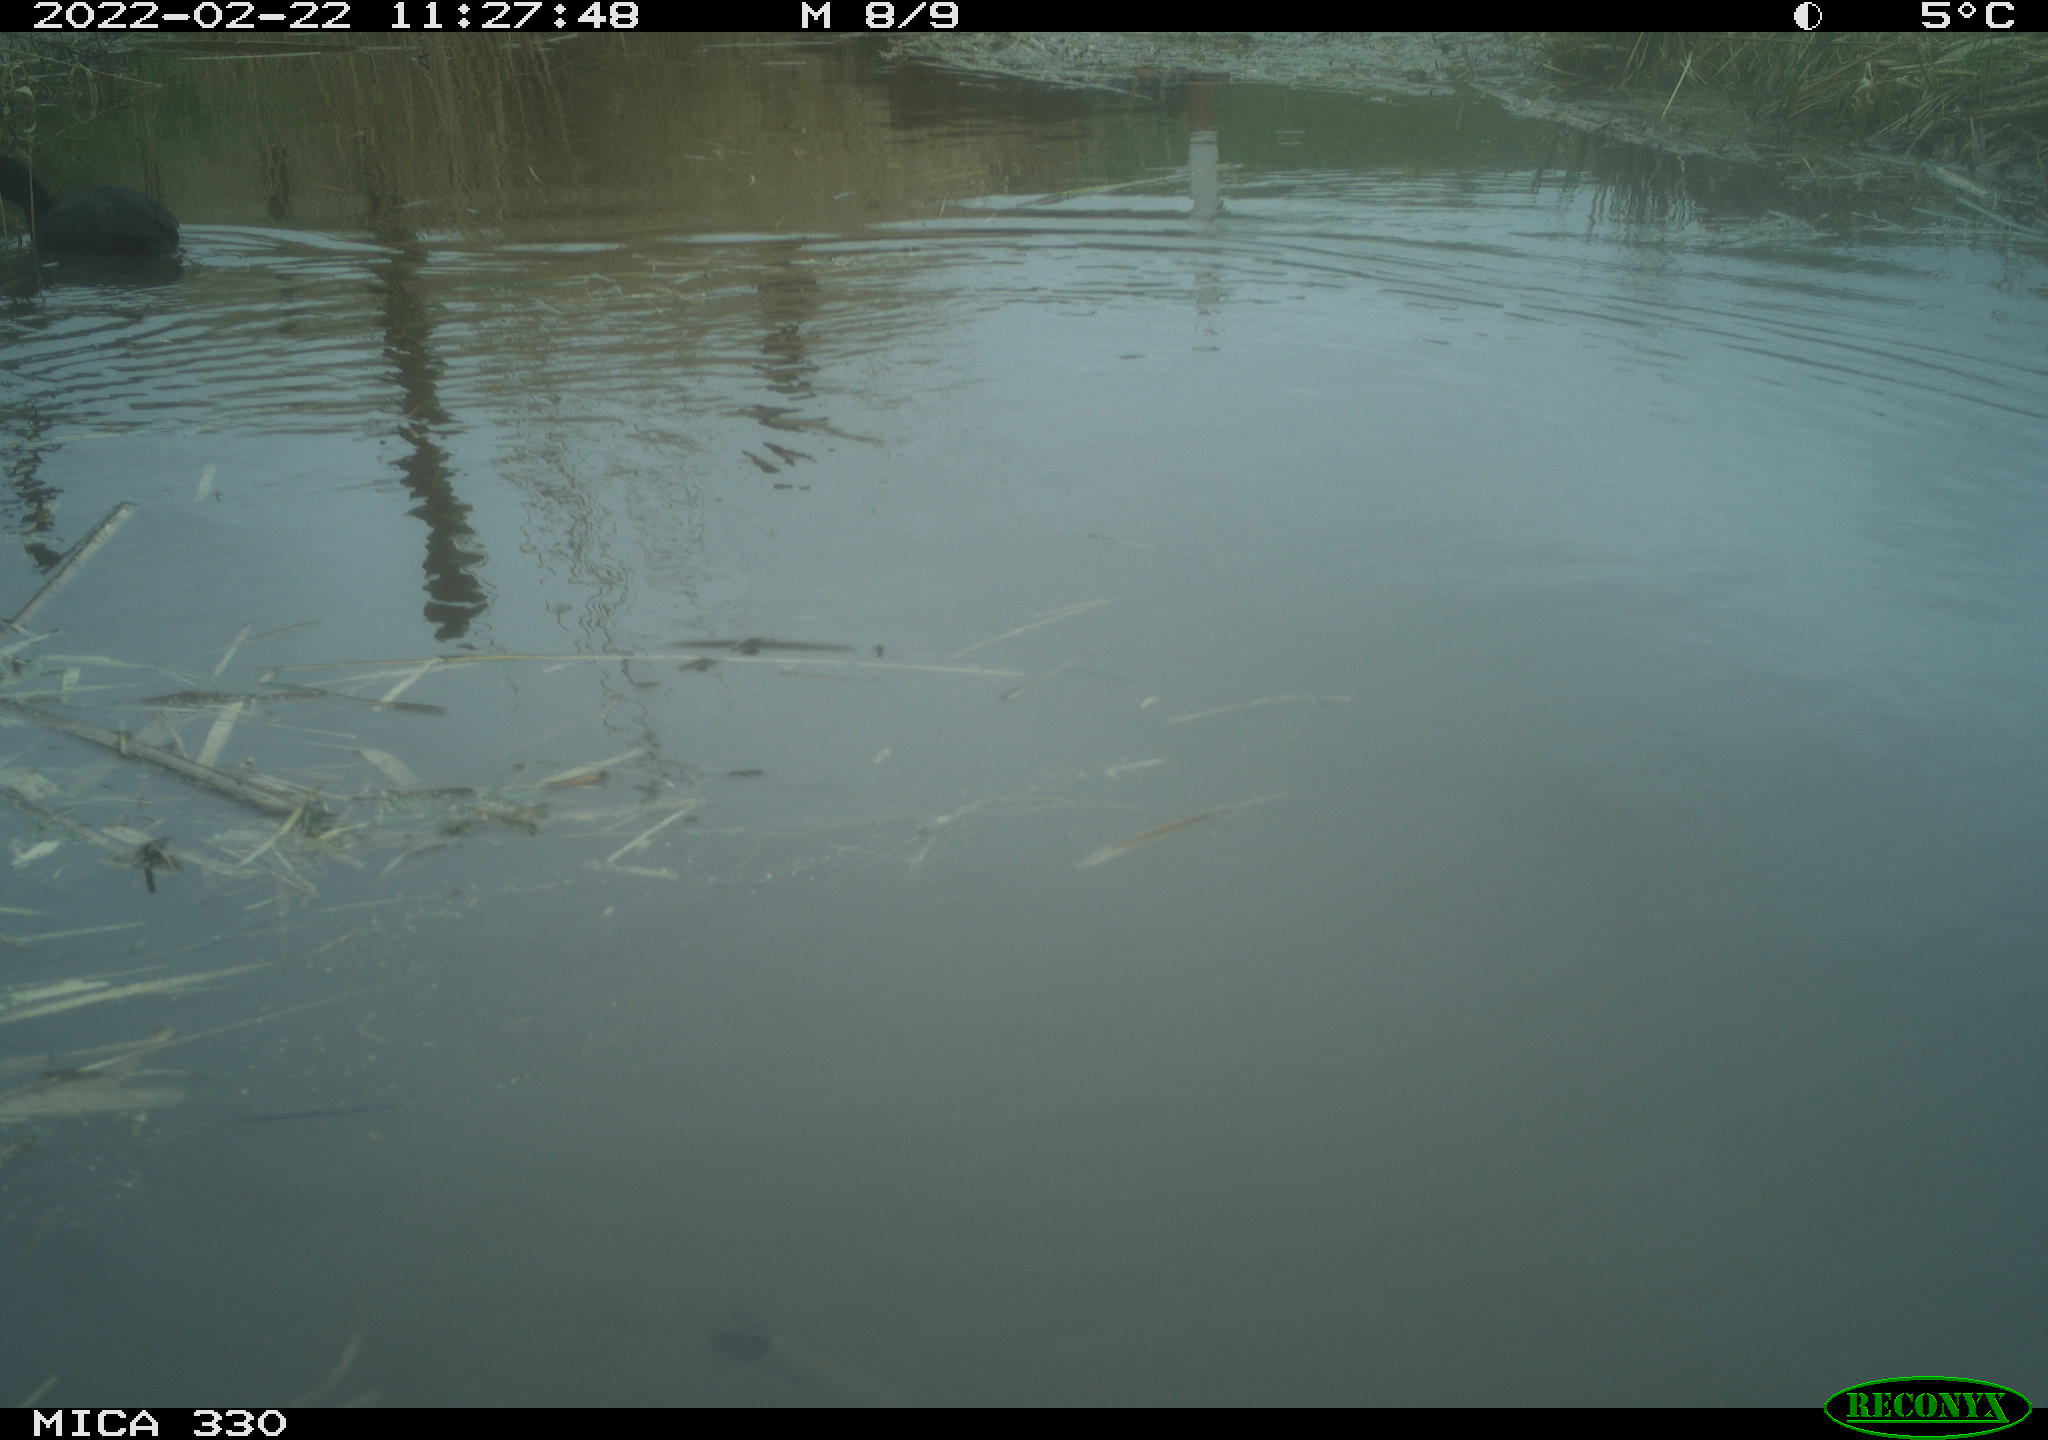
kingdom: Animalia
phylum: Chordata
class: Aves
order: Gruiformes
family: Rallidae
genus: Fulica
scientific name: Fulica atra
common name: Eurasian coot
